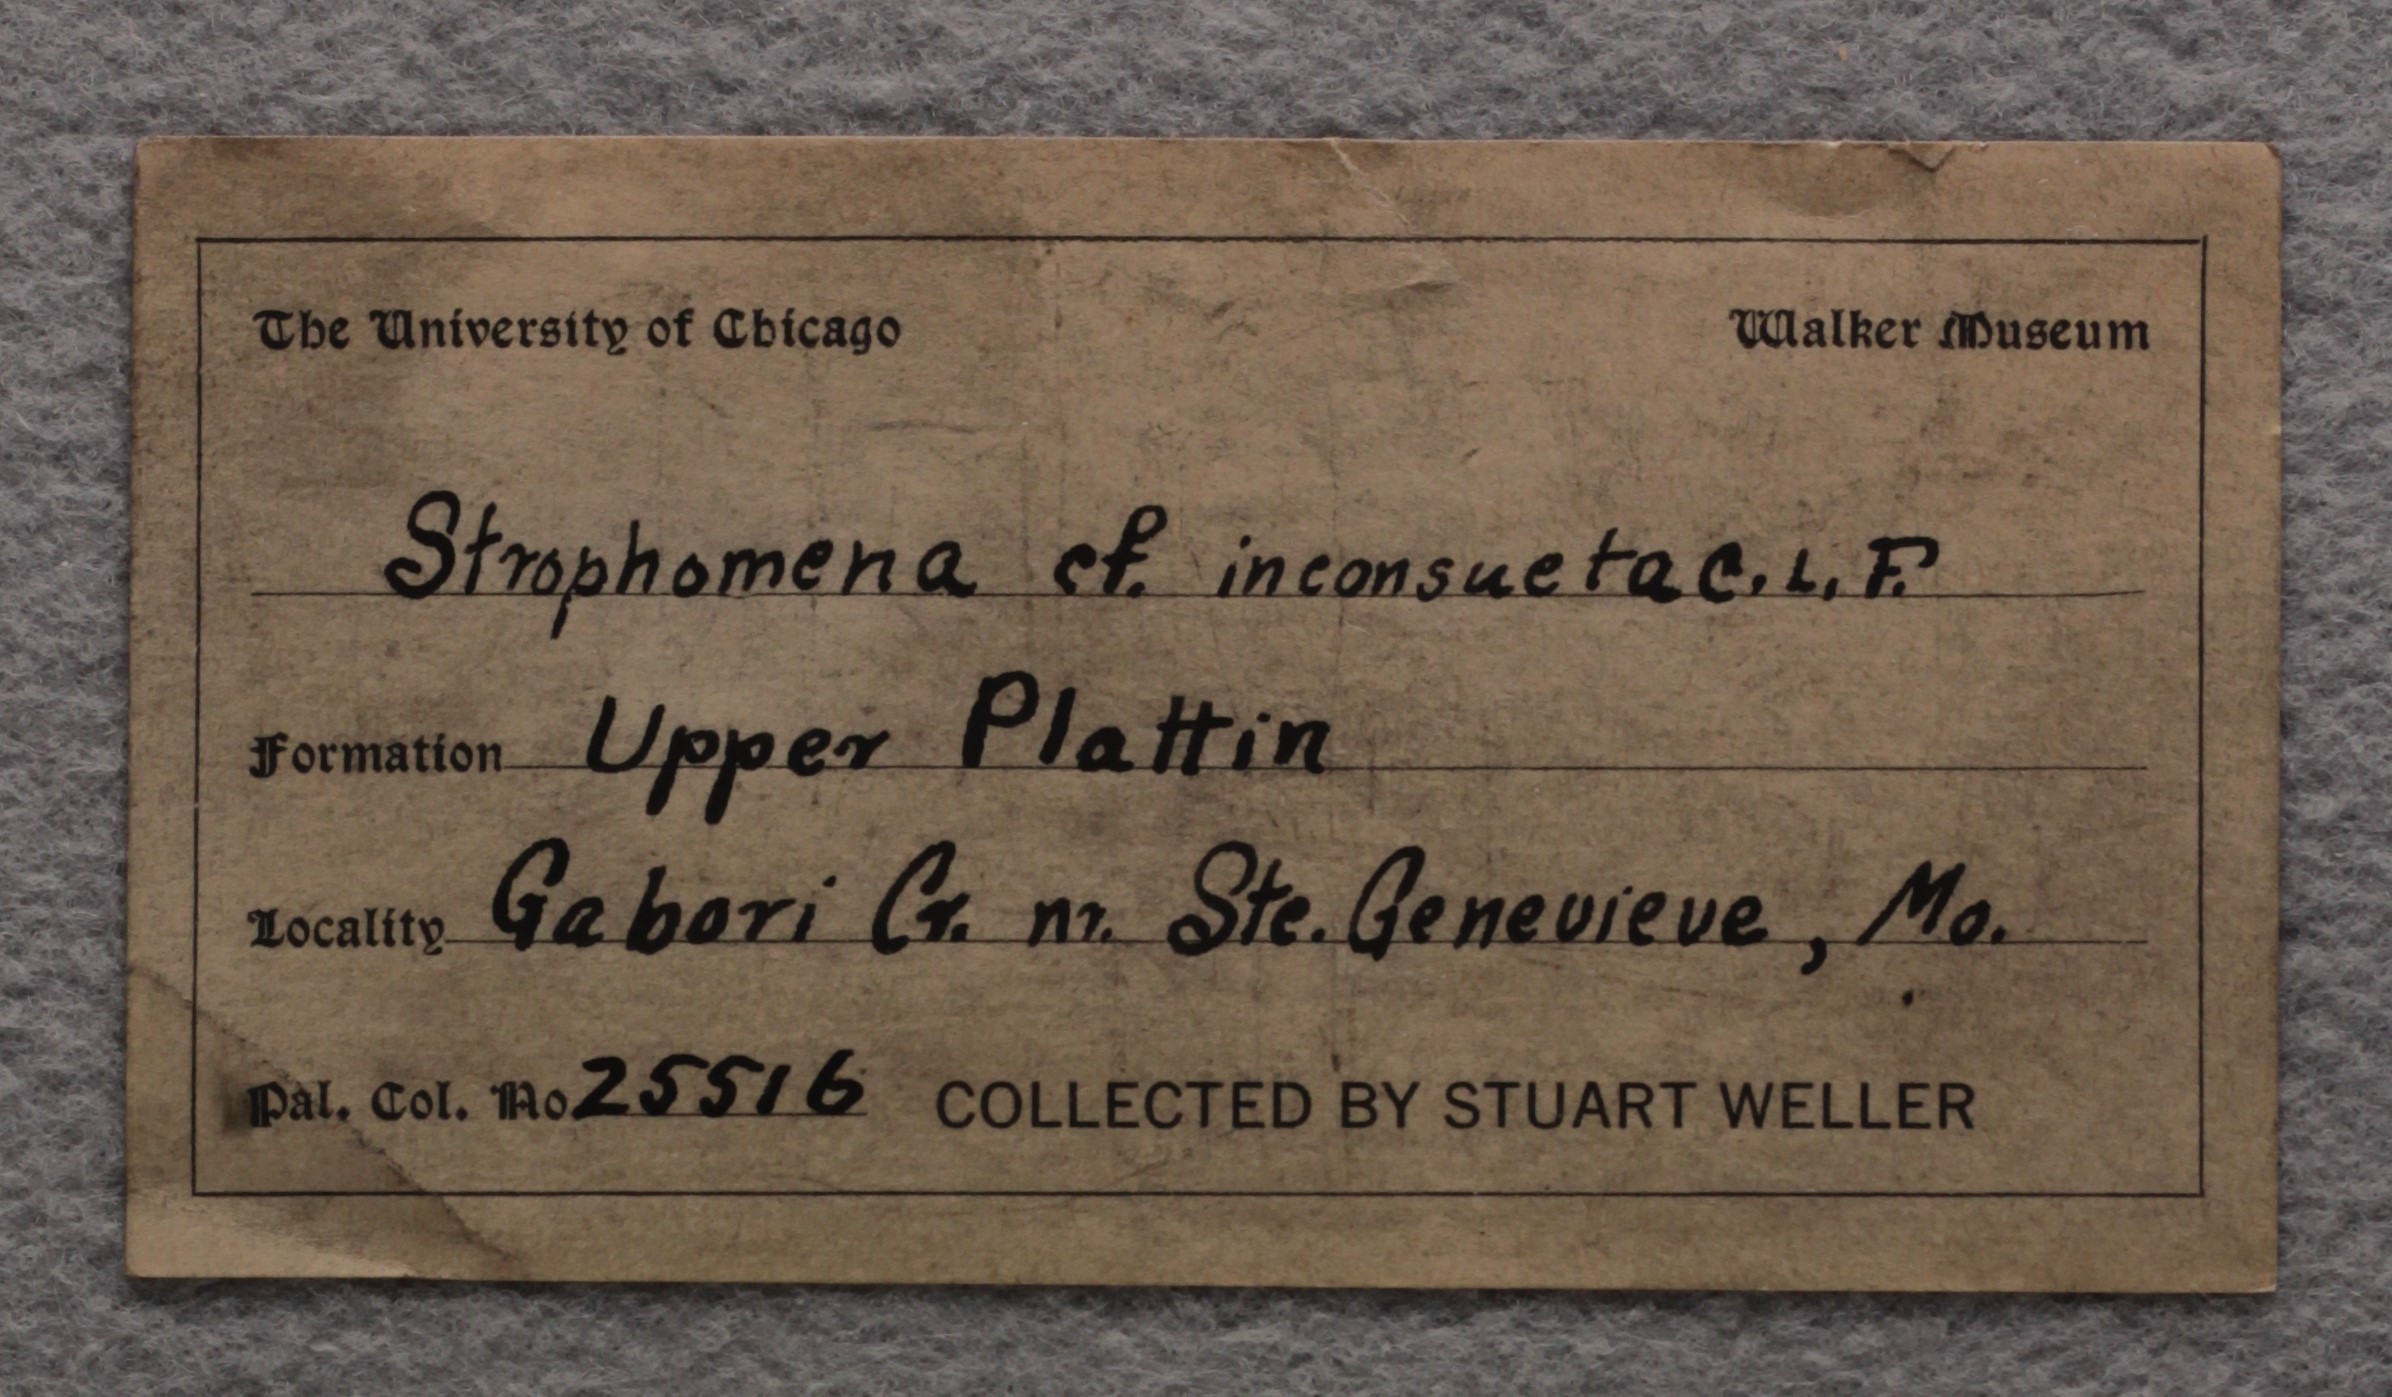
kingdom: Animalia
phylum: Brachiopoda
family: Strophomenidae
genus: Strophomena
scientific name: Strophomena
